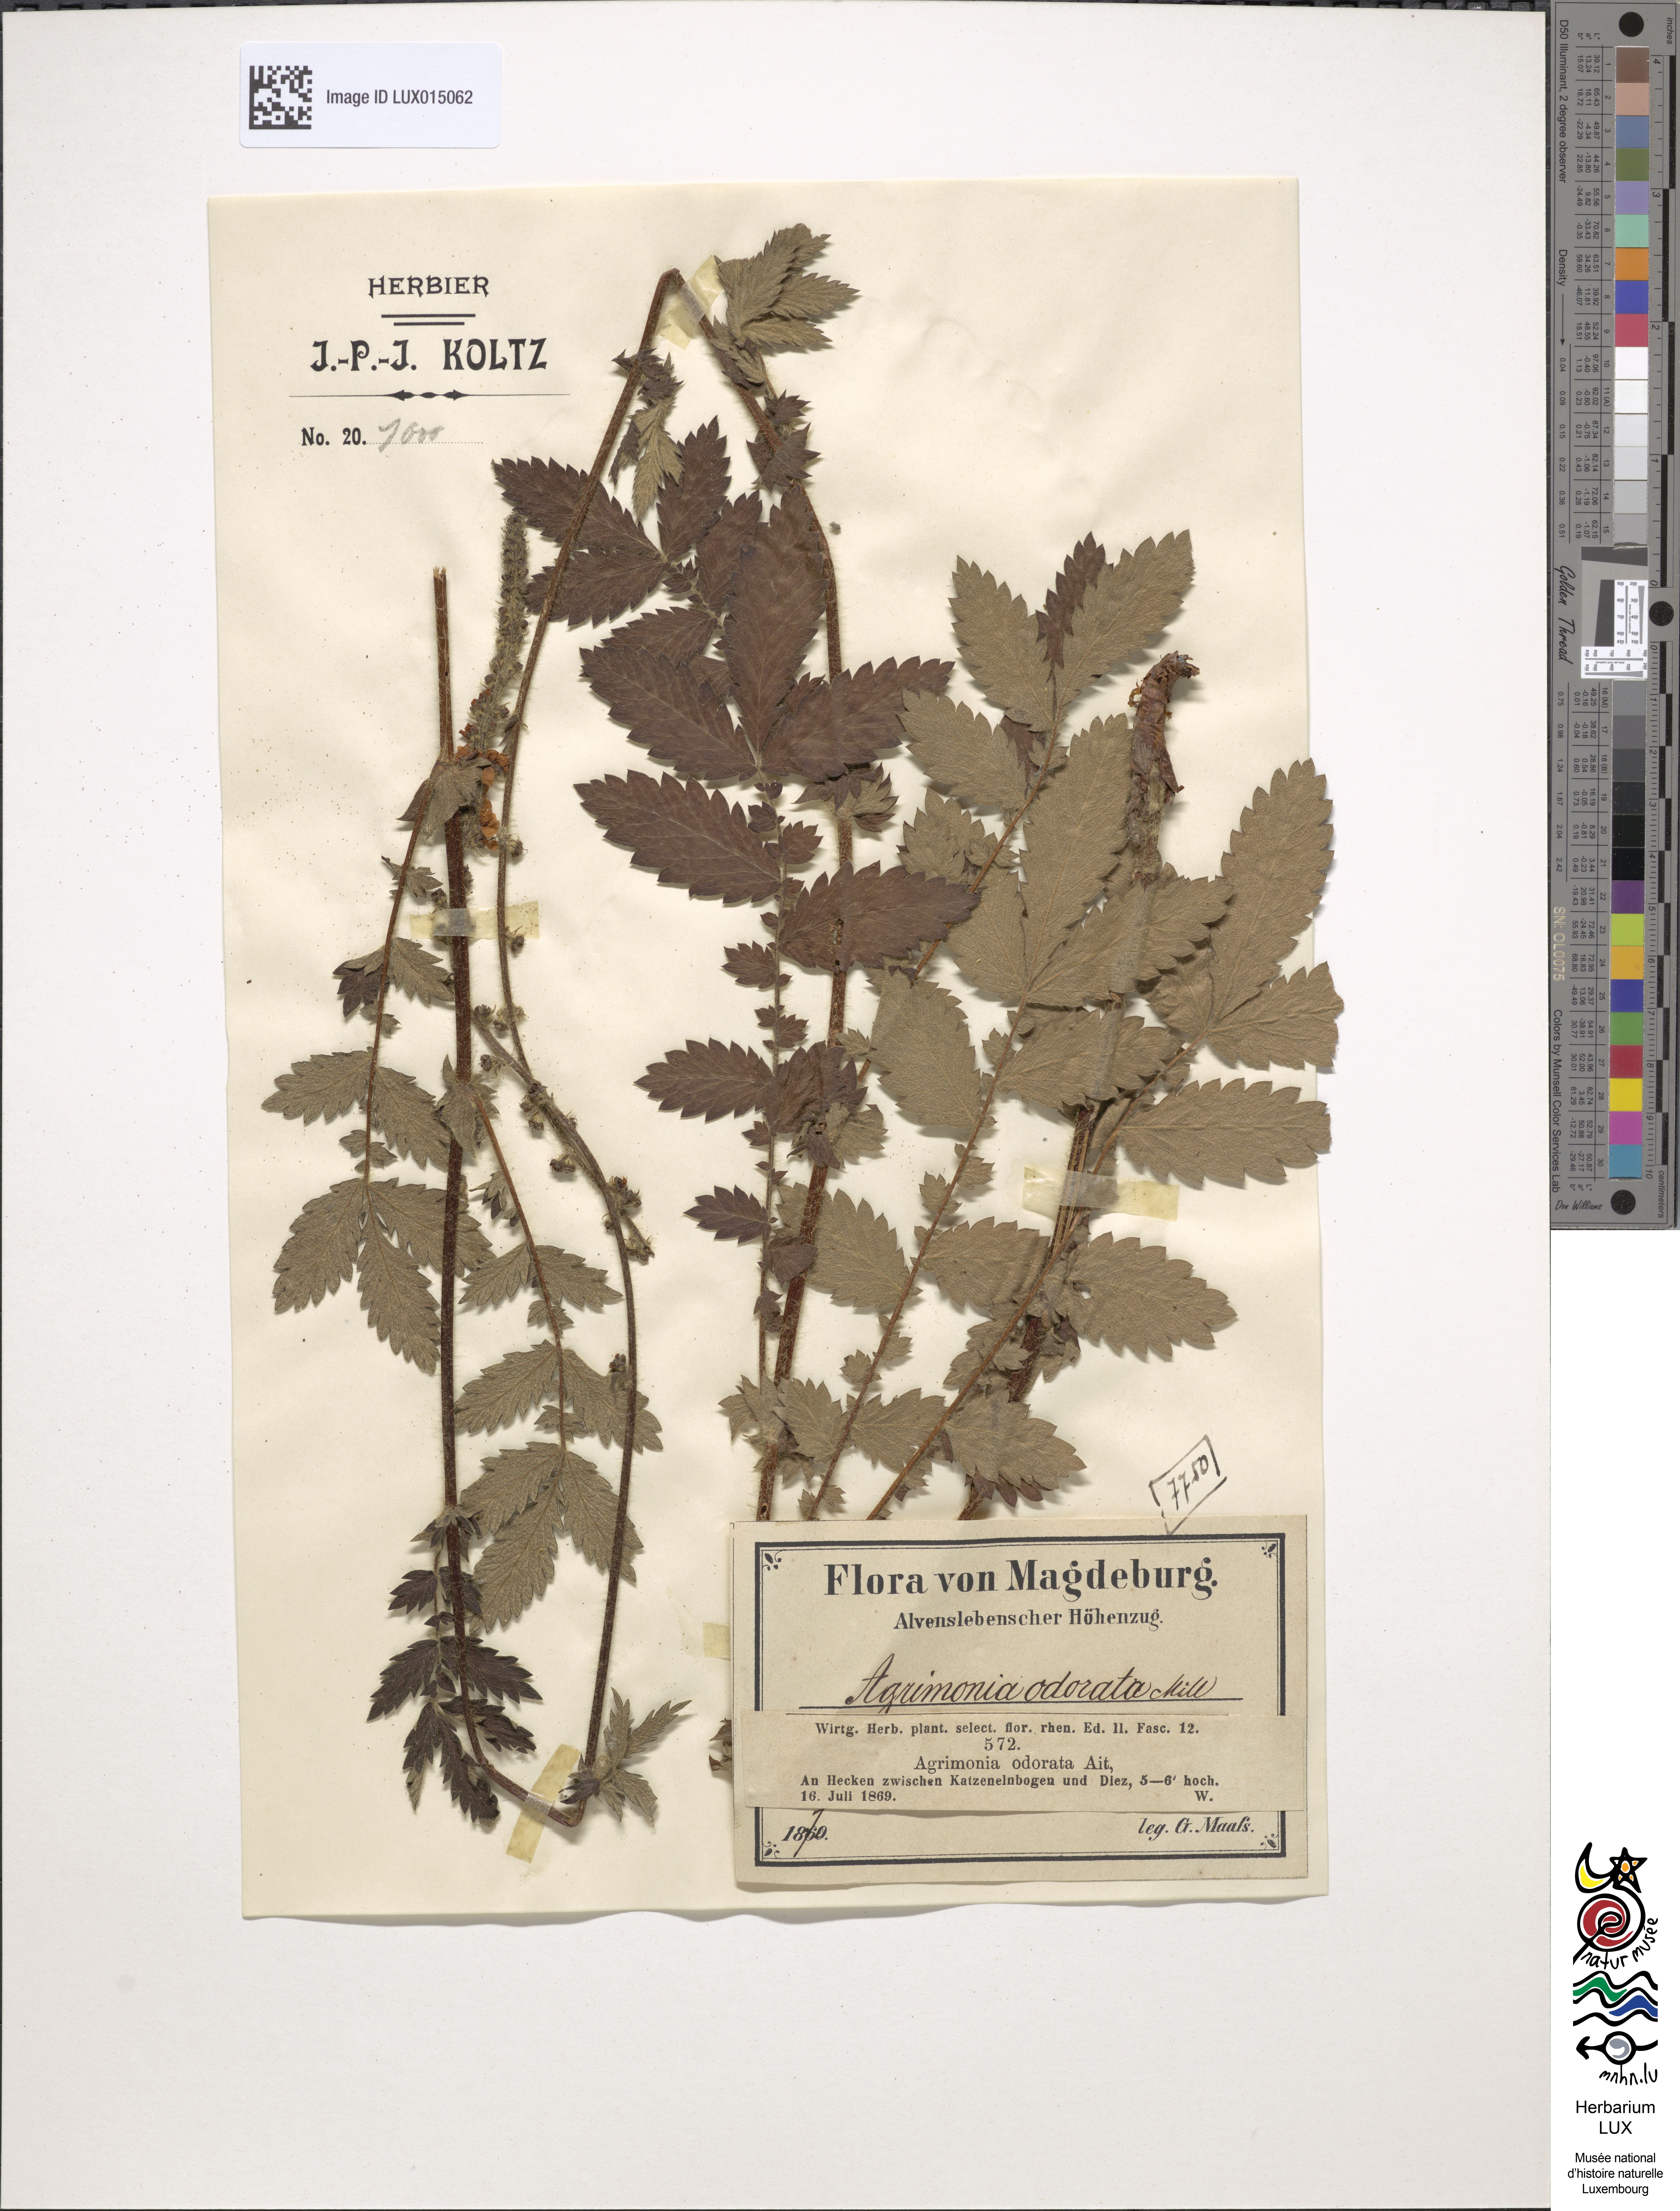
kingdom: Plantae
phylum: Tracheophyta
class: Magnoliopsida
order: Rosales
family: Rosaceae
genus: Agrimonia
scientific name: Agrimonia repens
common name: Creeping agrimony
